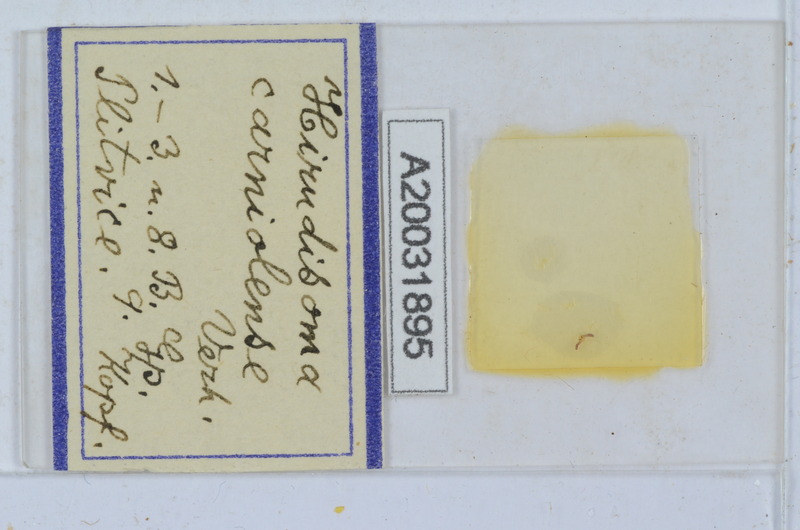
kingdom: Animalia
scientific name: Animalia
